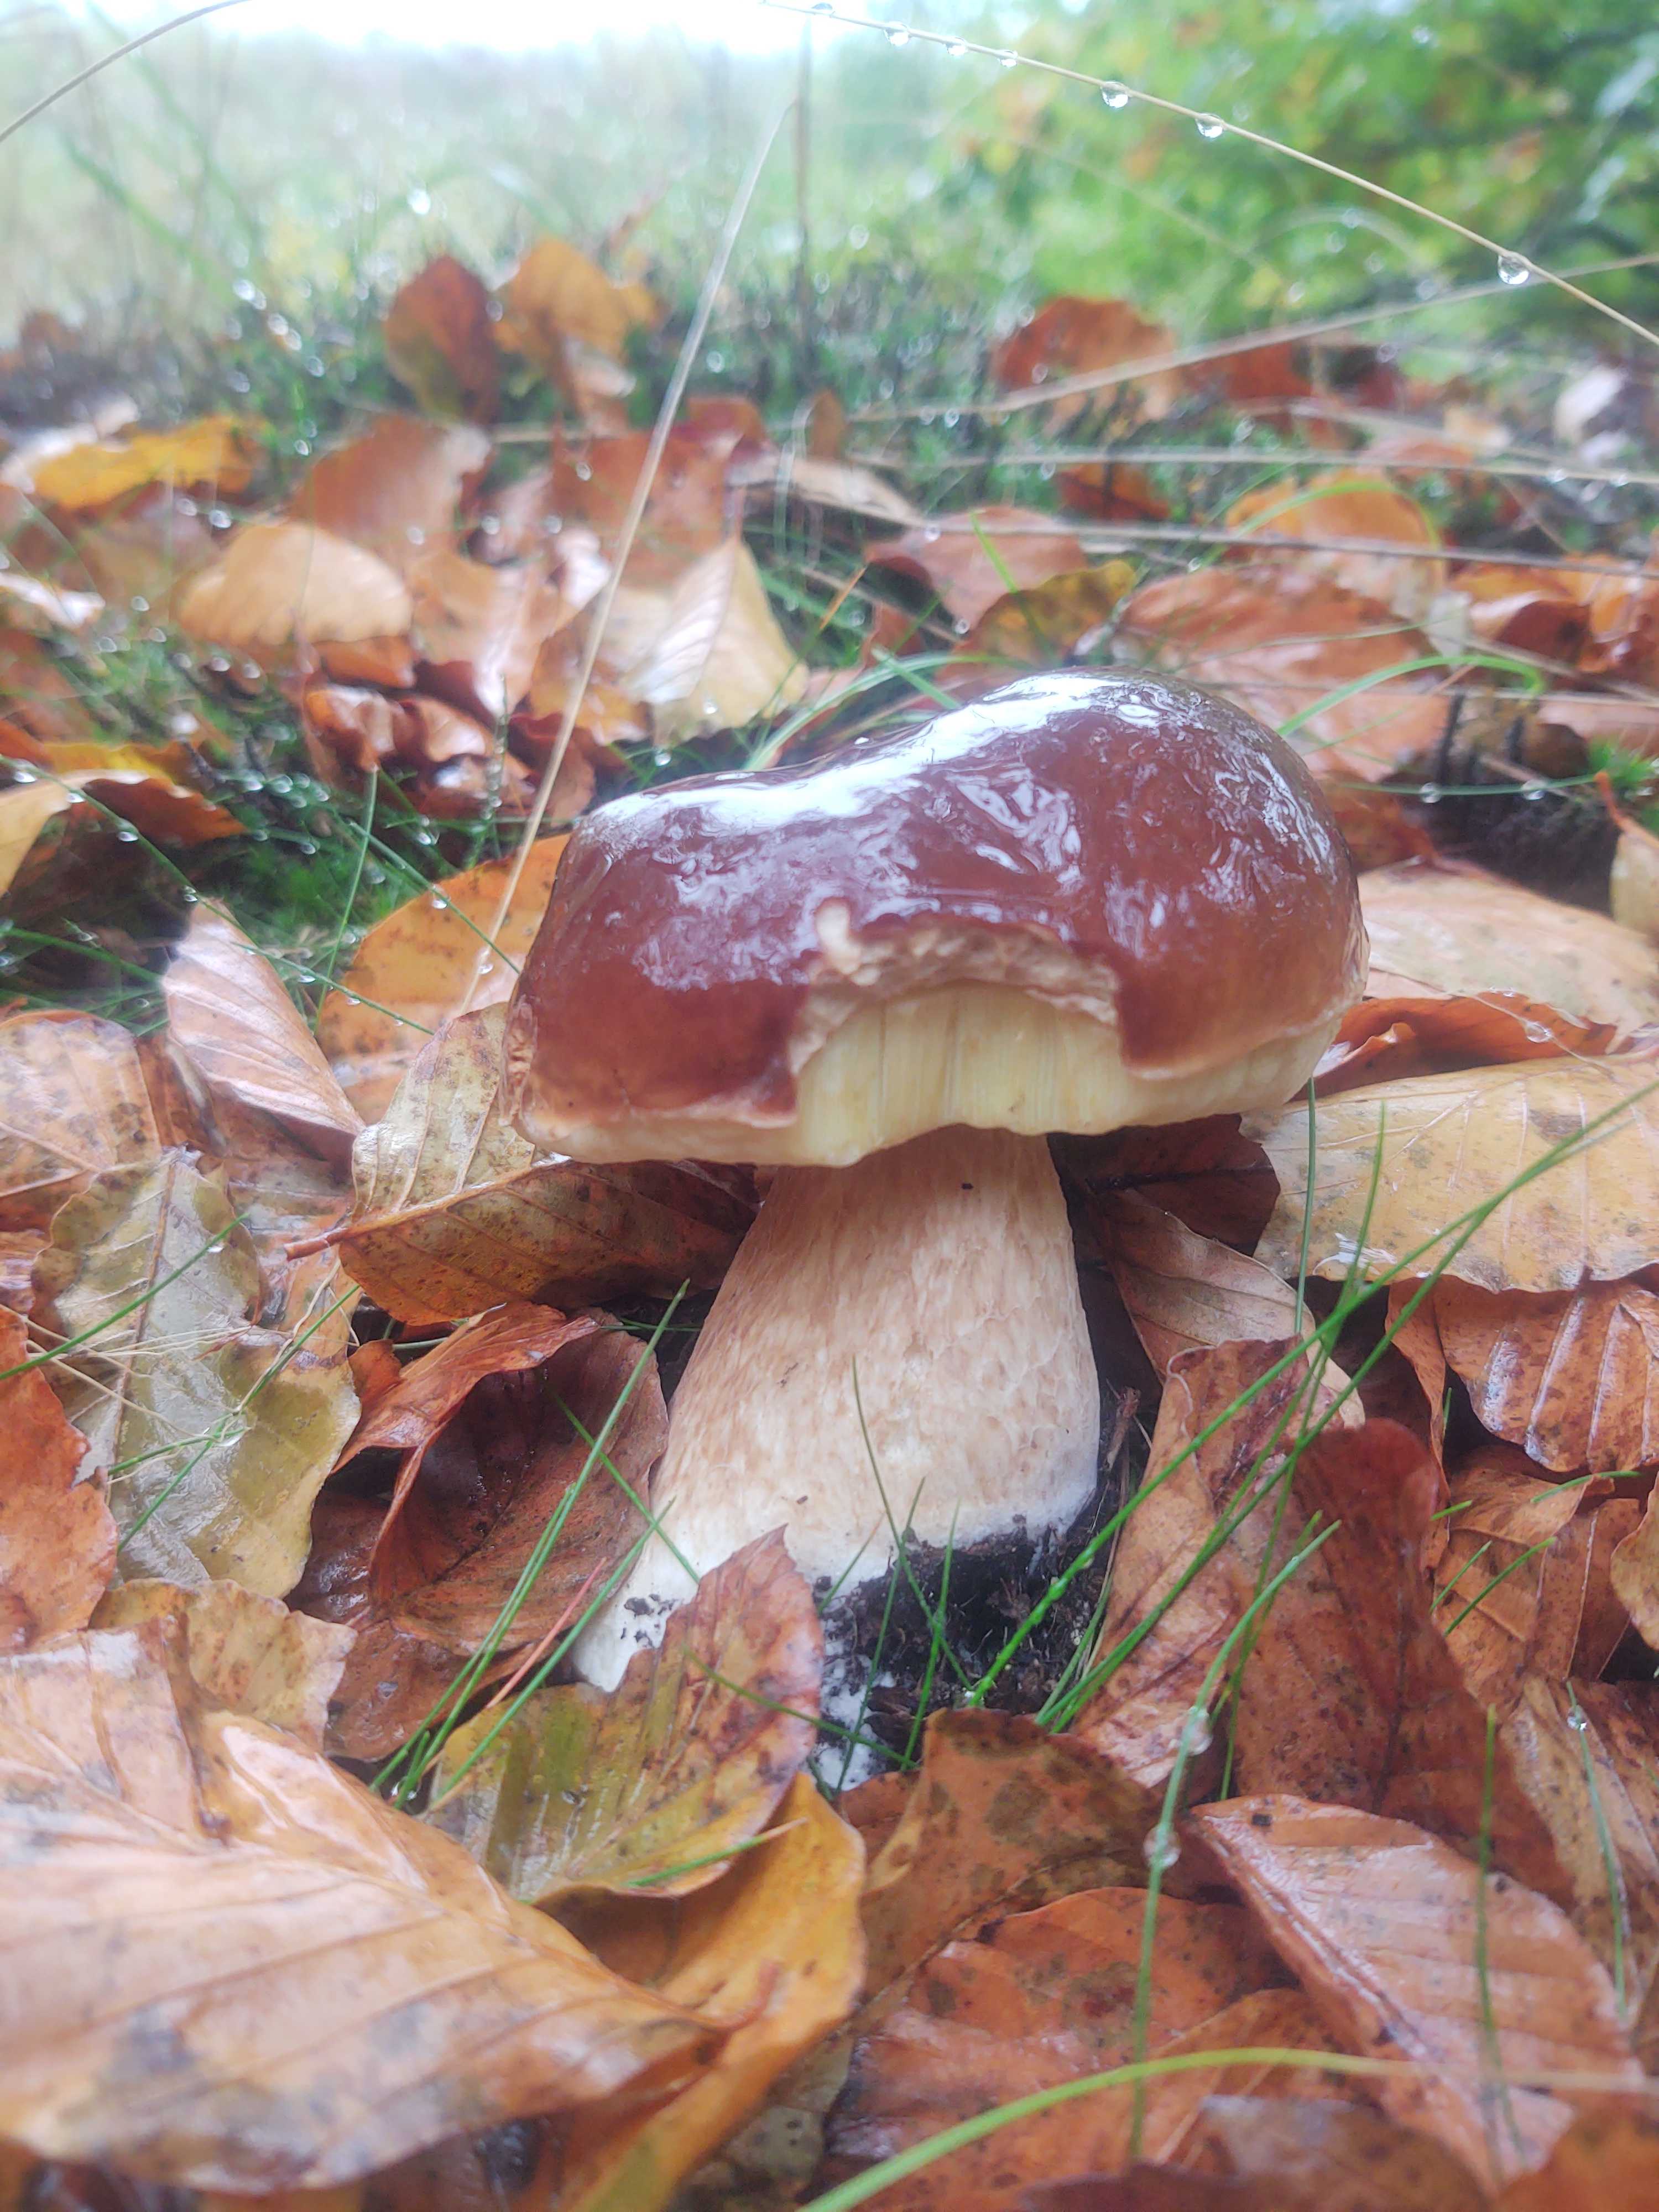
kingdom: Fungi
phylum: Basidiomycota
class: Agaricomycetes
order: Boletales
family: Boletaceae
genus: Boletus
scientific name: Boletus edulis
